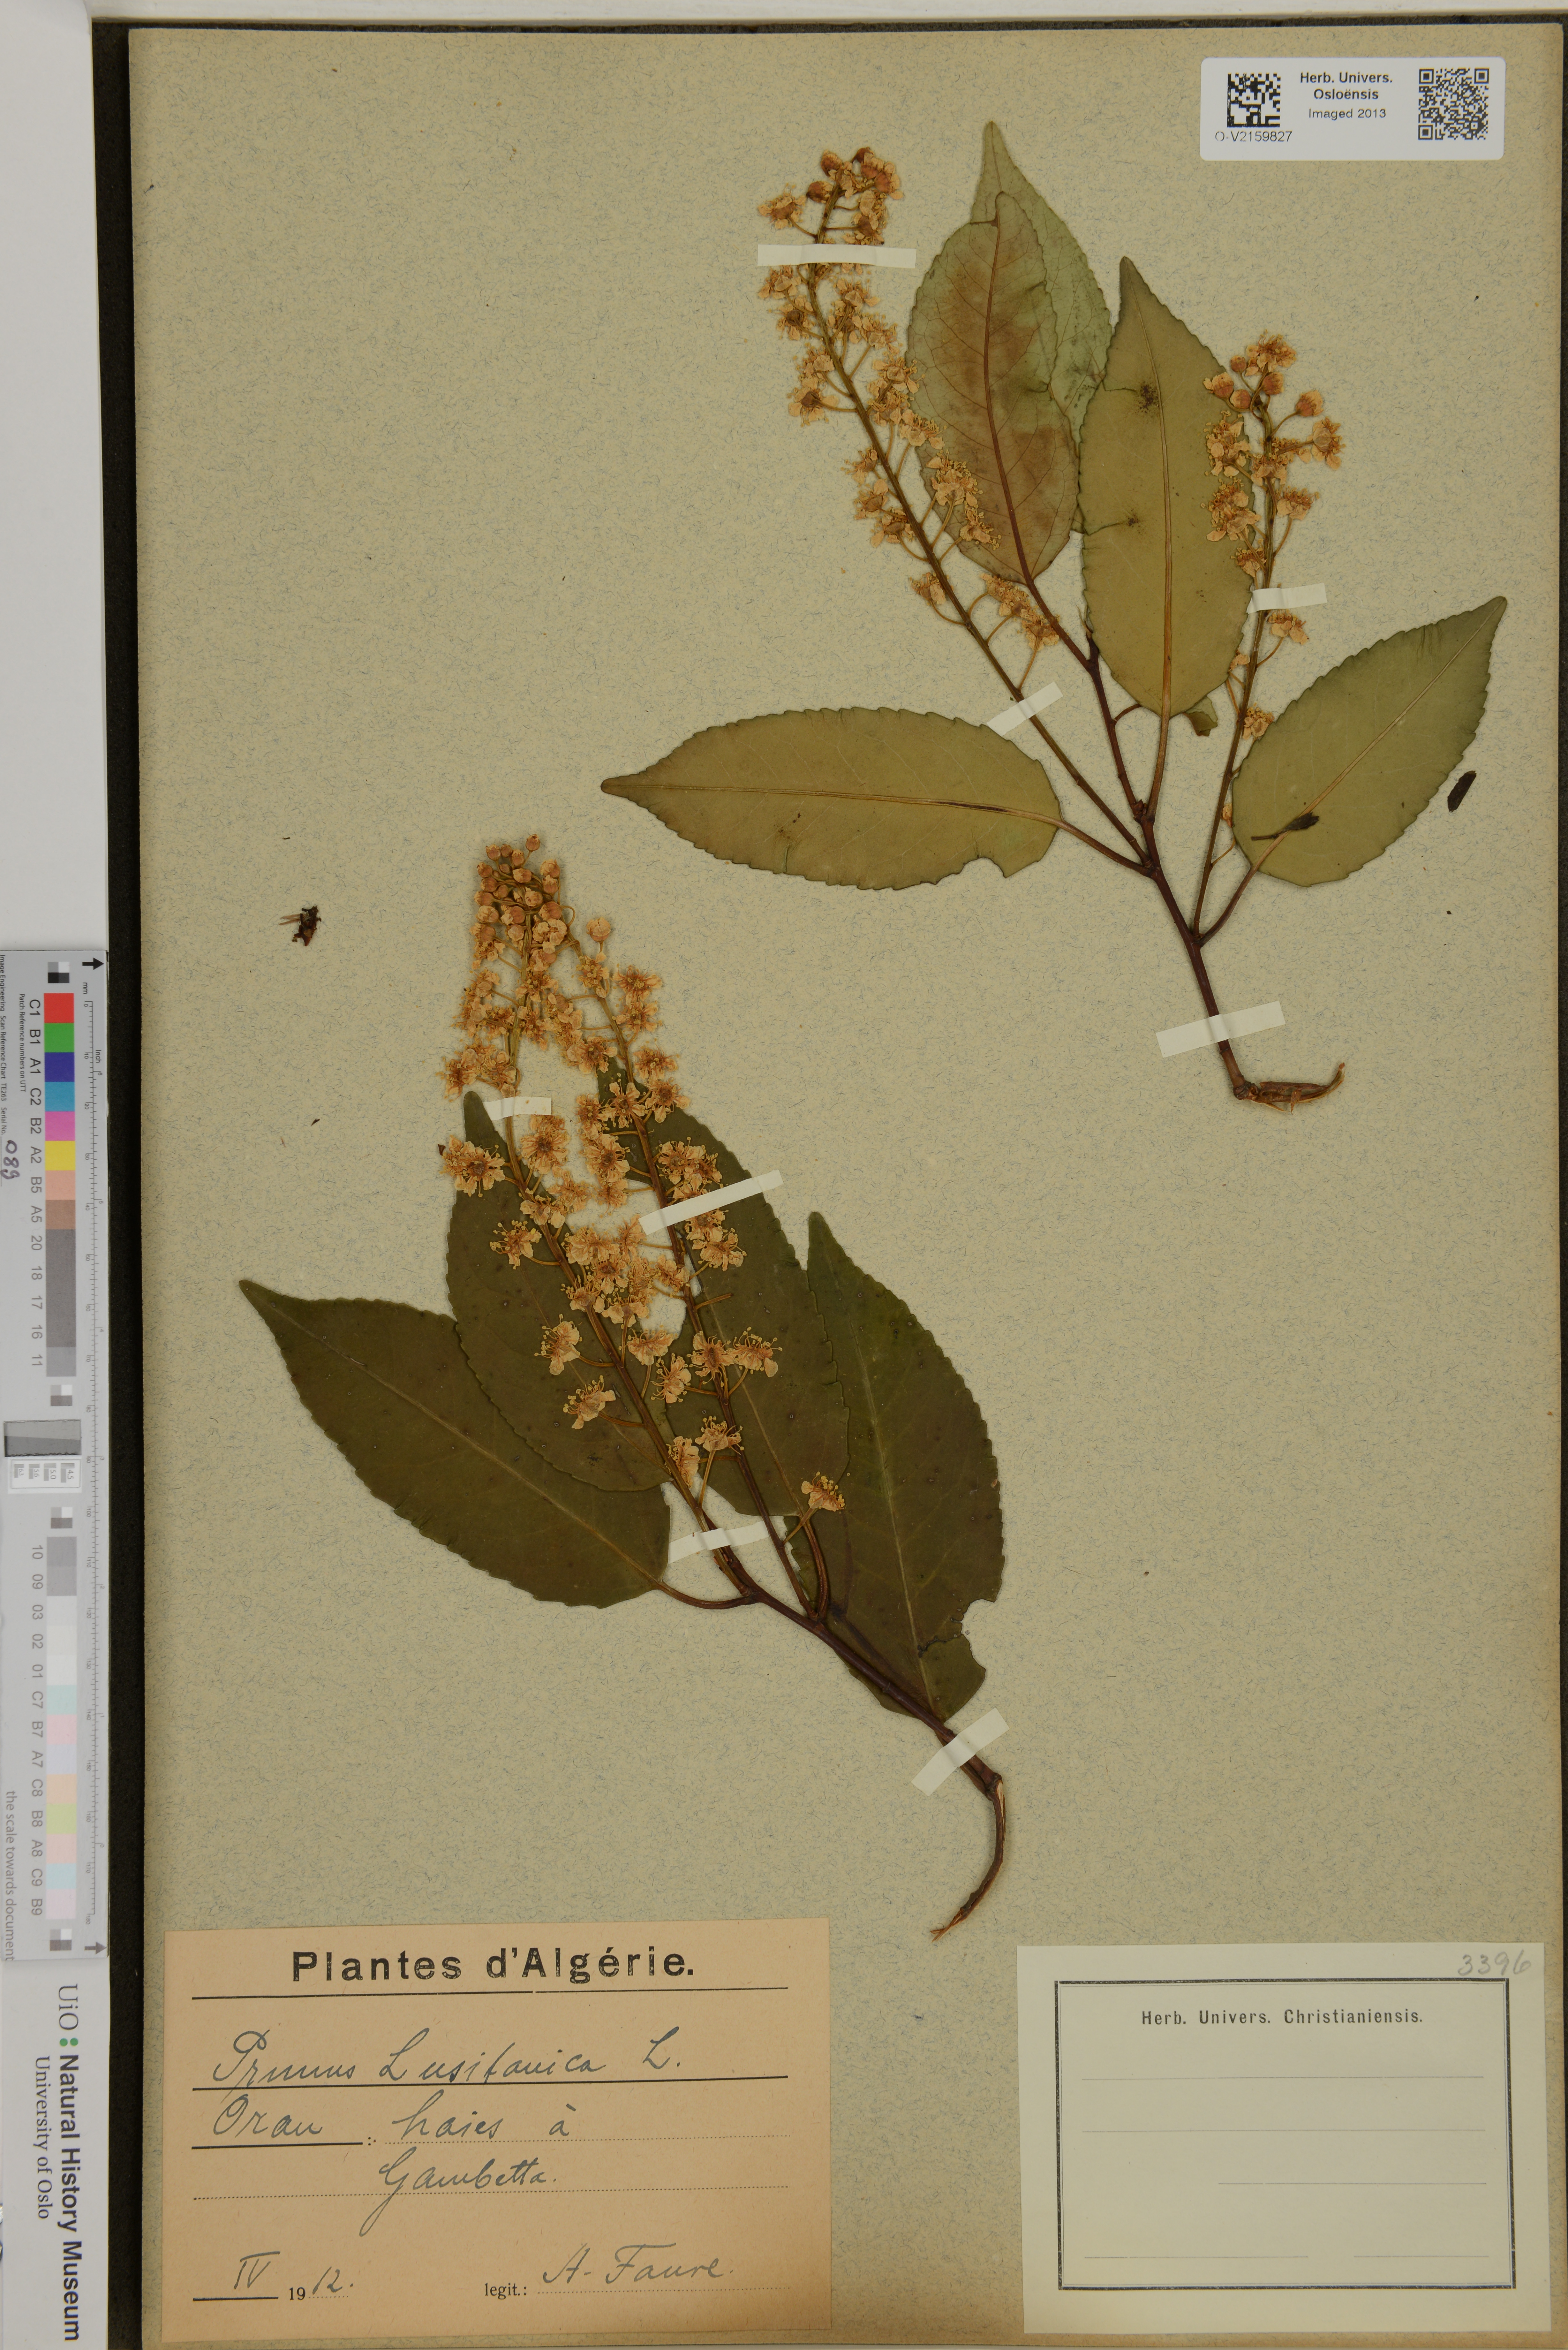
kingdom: Plantae
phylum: Tracheophyta
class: Magnoliopsida
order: Rosales
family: Rosaceae
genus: Prunus
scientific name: Prunus lusitanica
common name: Portugal laurel
